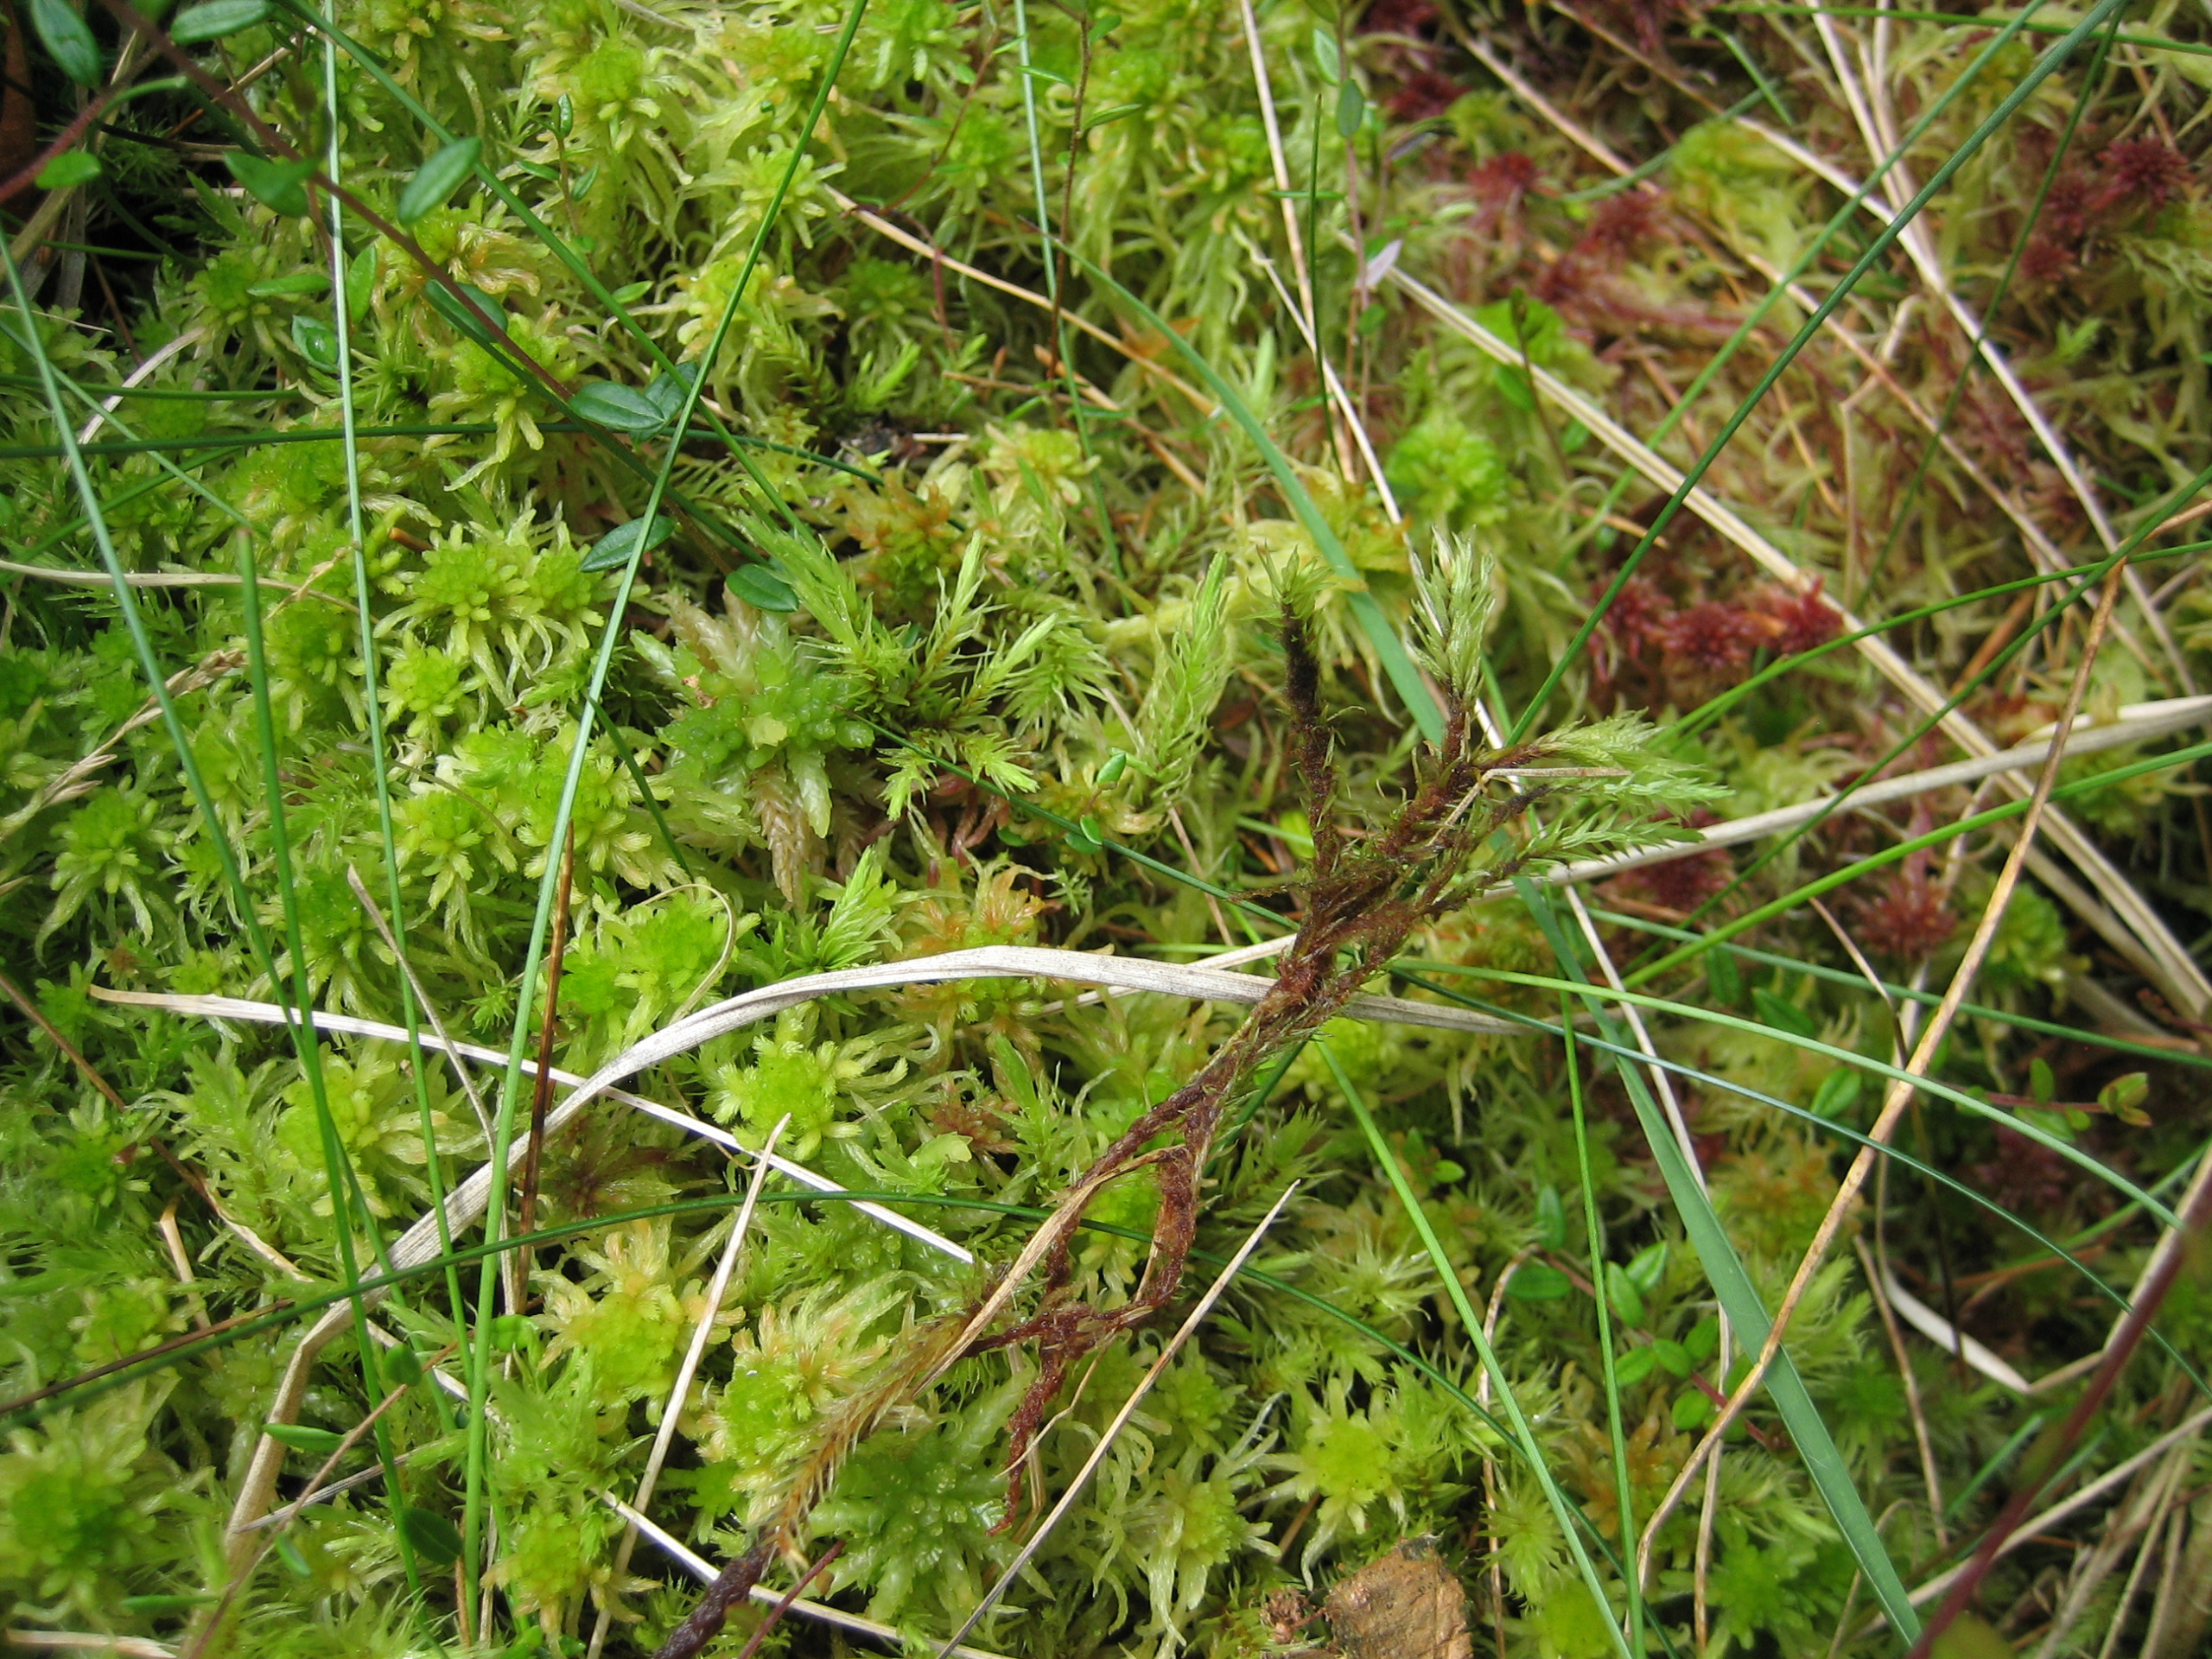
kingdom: Plantae
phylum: Bryophyta
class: Bryopsida
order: Aulacomniales
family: Aulacomniaceae
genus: Aulacomnium
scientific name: Aulacomnium palustre
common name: Almindelig filtmos
